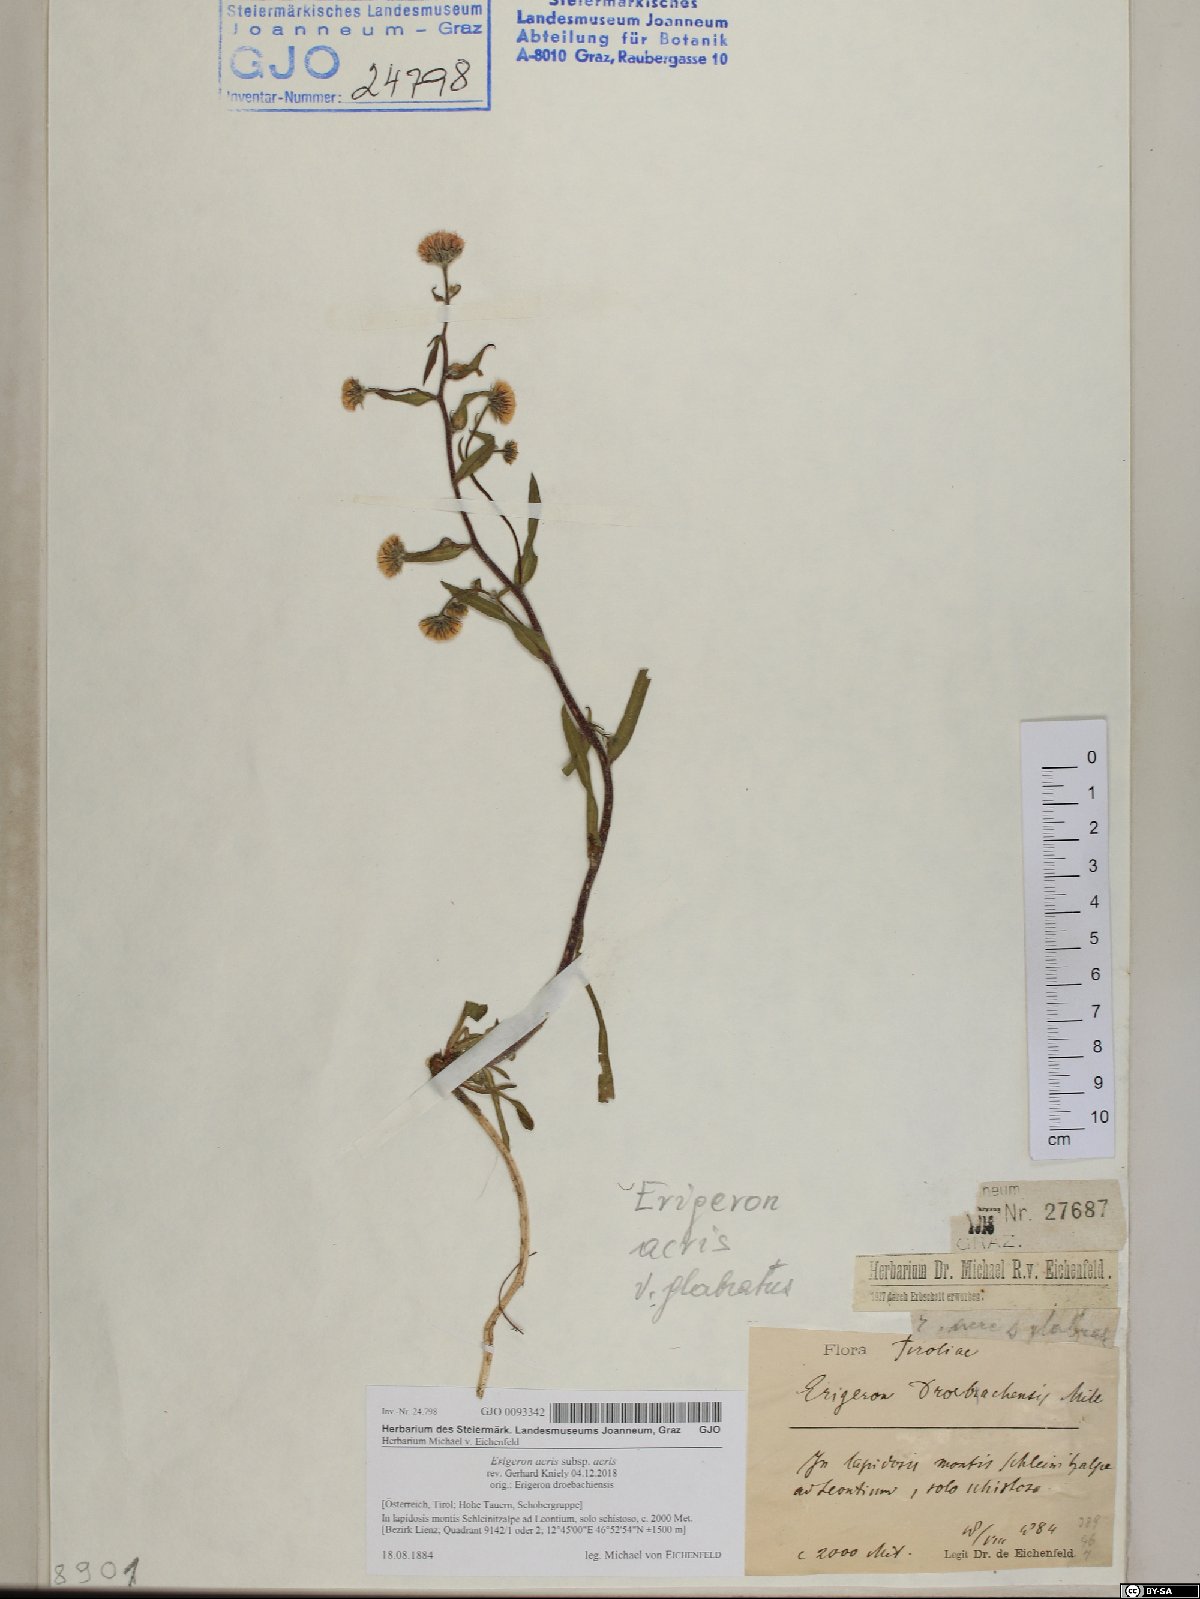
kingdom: Plantae
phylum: Tracheophyta
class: Magnoliopsida
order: Asterales
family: Asteraceae
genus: Erigeron
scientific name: Erigeron acris
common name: Blue fleabane
